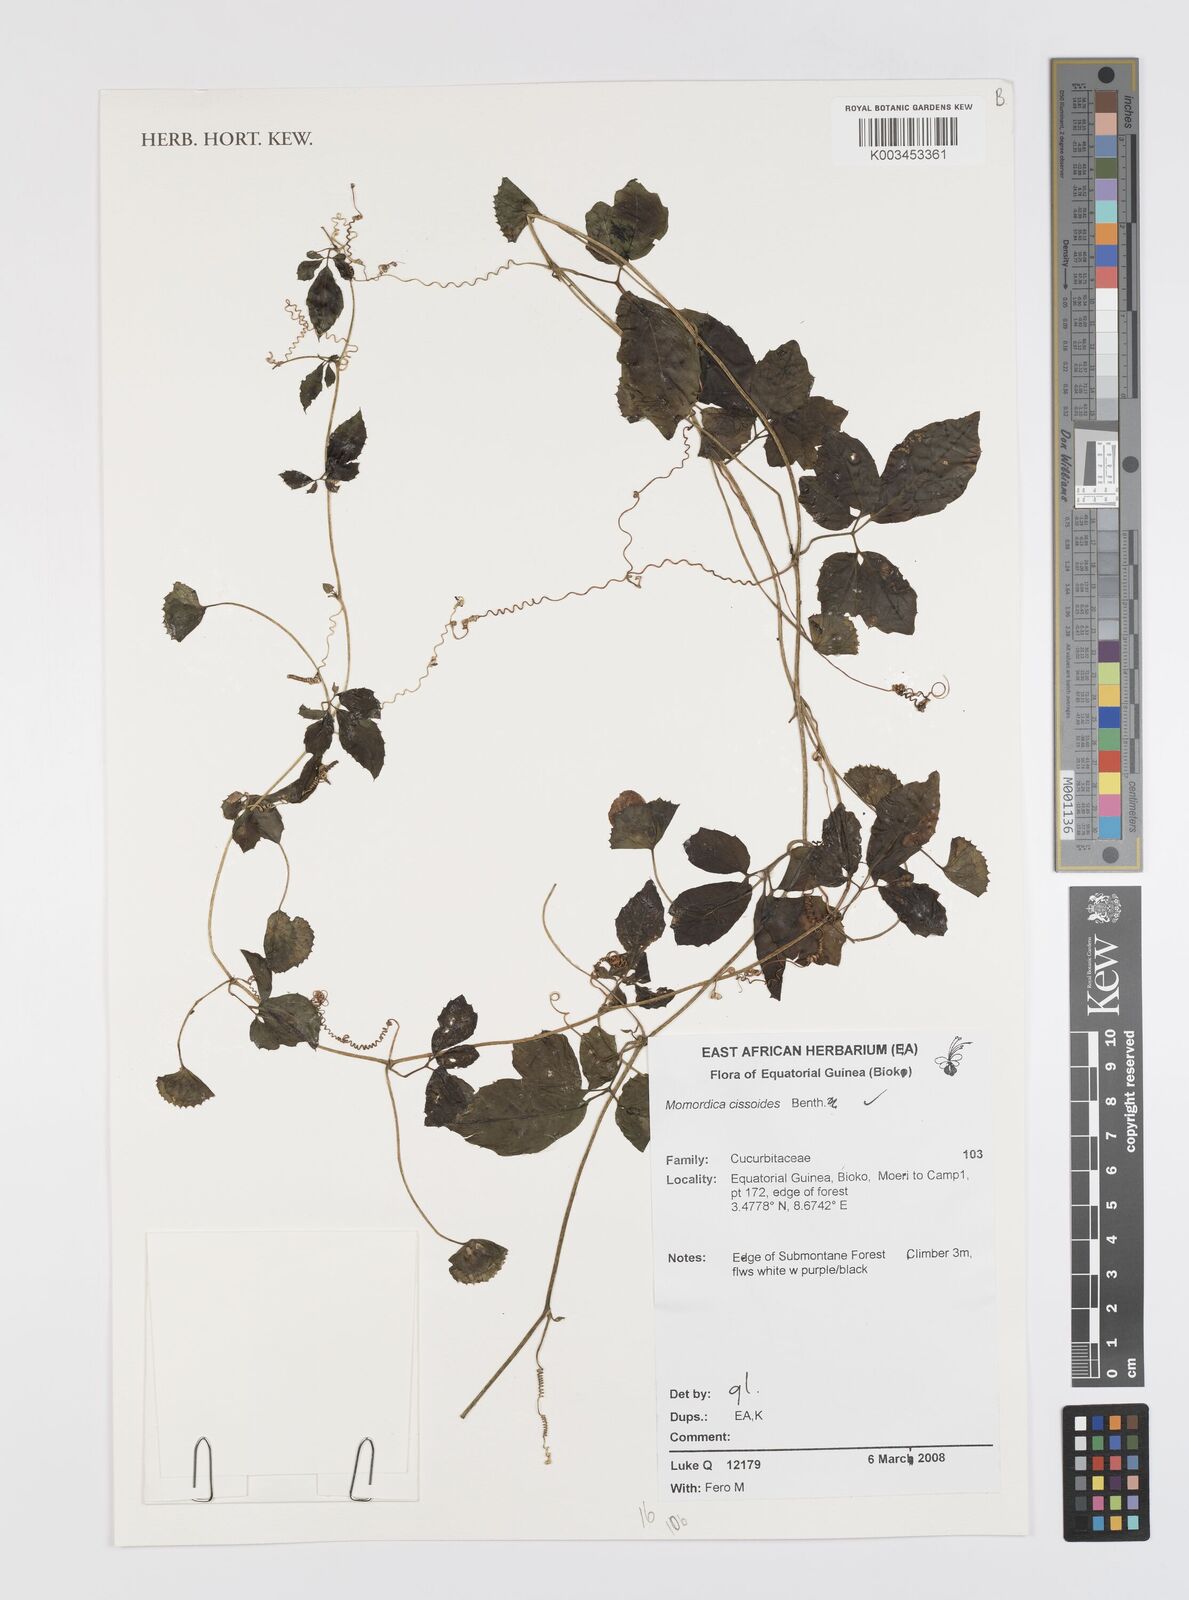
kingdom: Plantae
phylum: Tracheophyta
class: Magnoliopsida
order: Cucurbitales
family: Cucurbitaceae
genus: Momordica
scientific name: Momordica cissoides
